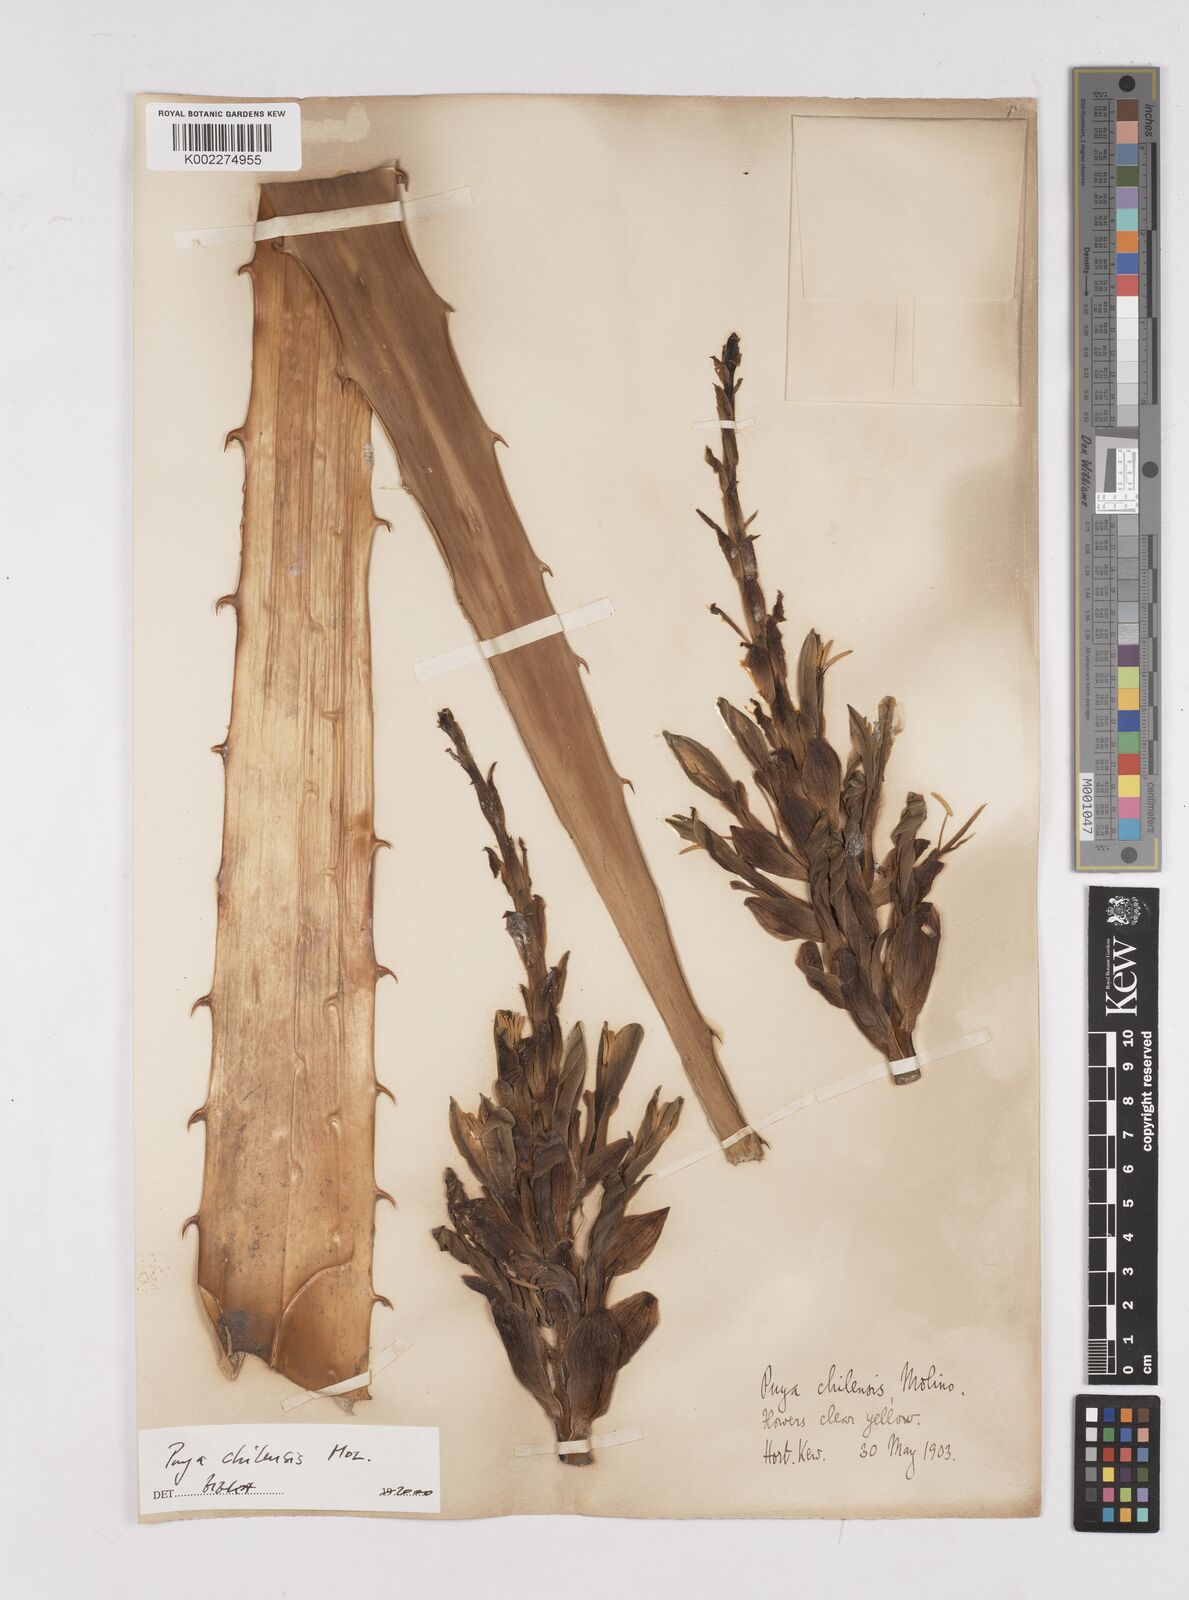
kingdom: Plantae
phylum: Tracheophyta
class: Liliopsida
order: Poales
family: Bromeliaceae
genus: Puya
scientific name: Puya chilensis
